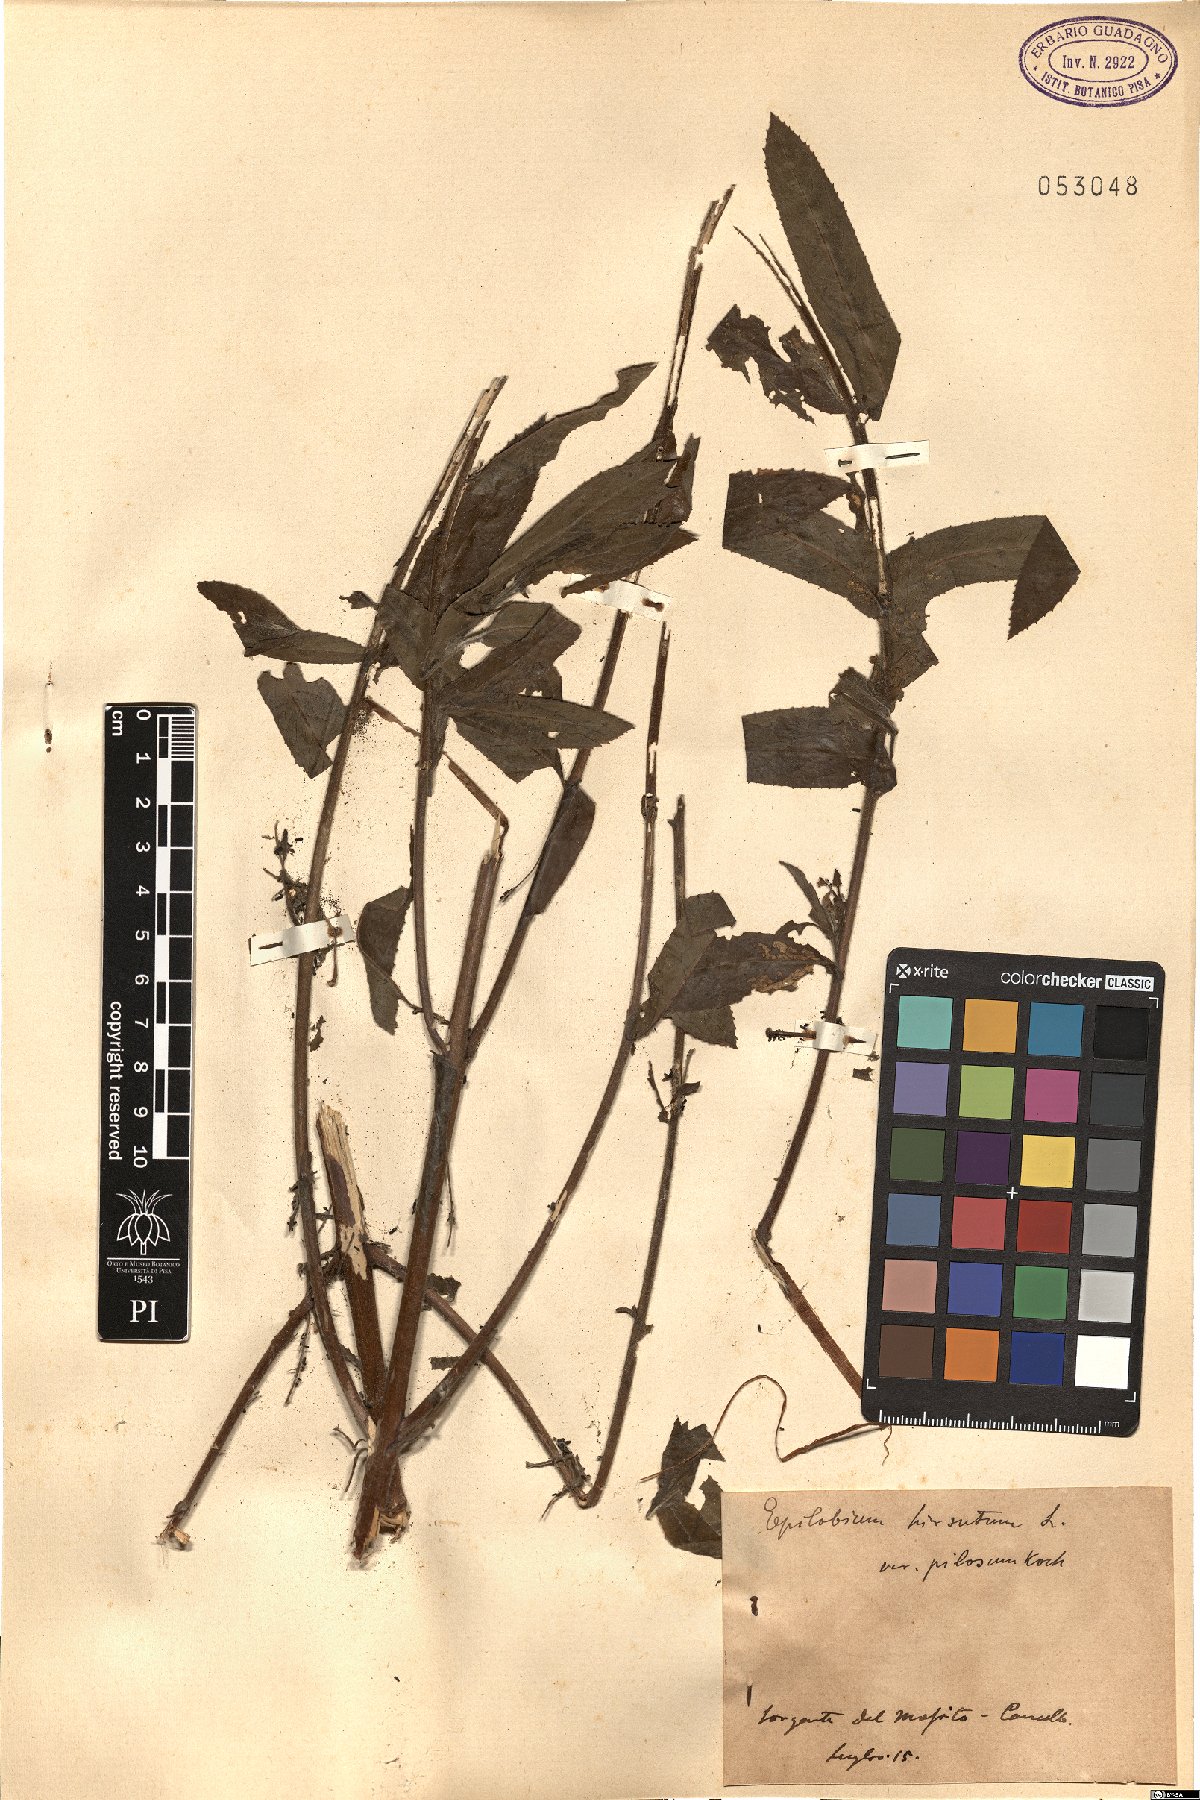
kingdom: Plantae
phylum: Tracheophyta
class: Magnoliopsida
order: Myrtales
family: Onagraceae
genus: Epilobium
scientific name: Epilobium hirsutum
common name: Great willowherb
